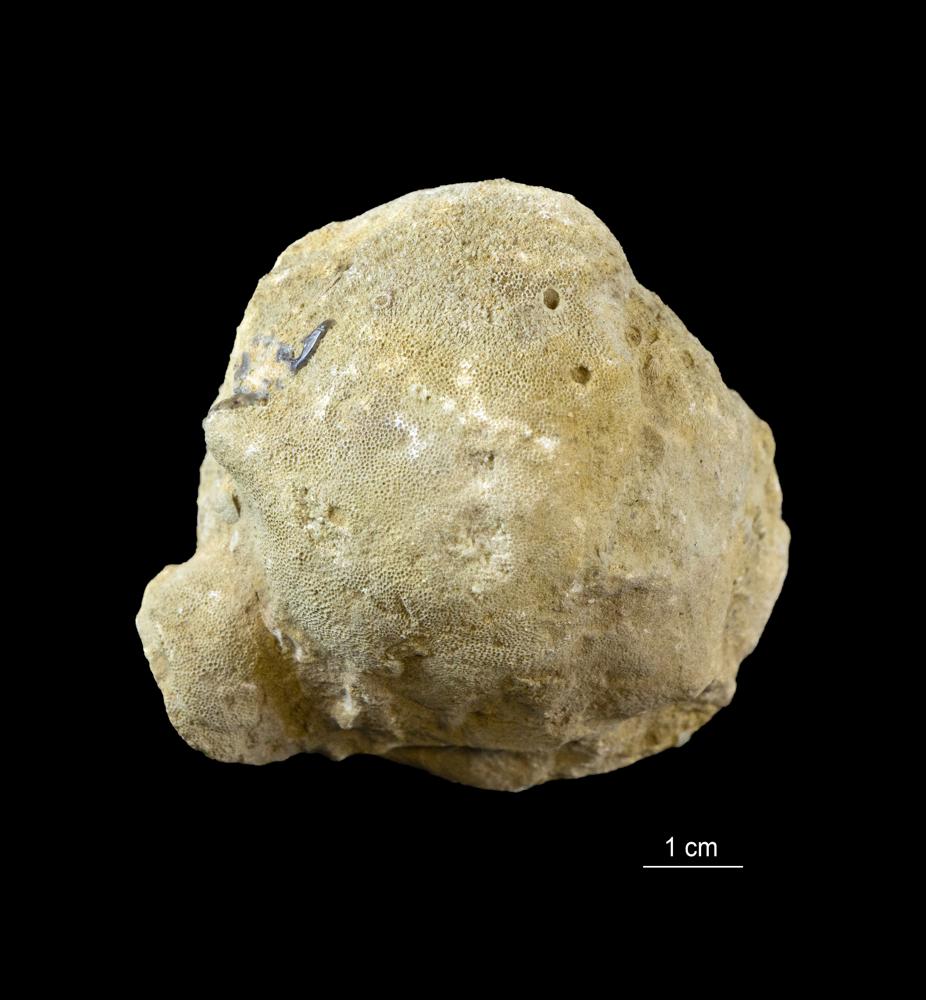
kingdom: Animalia
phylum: Bryozoa
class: Stenolaemata
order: Trepostomatida
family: Dianulitidae
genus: Dianulites
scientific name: Dianulites petropolitanus
